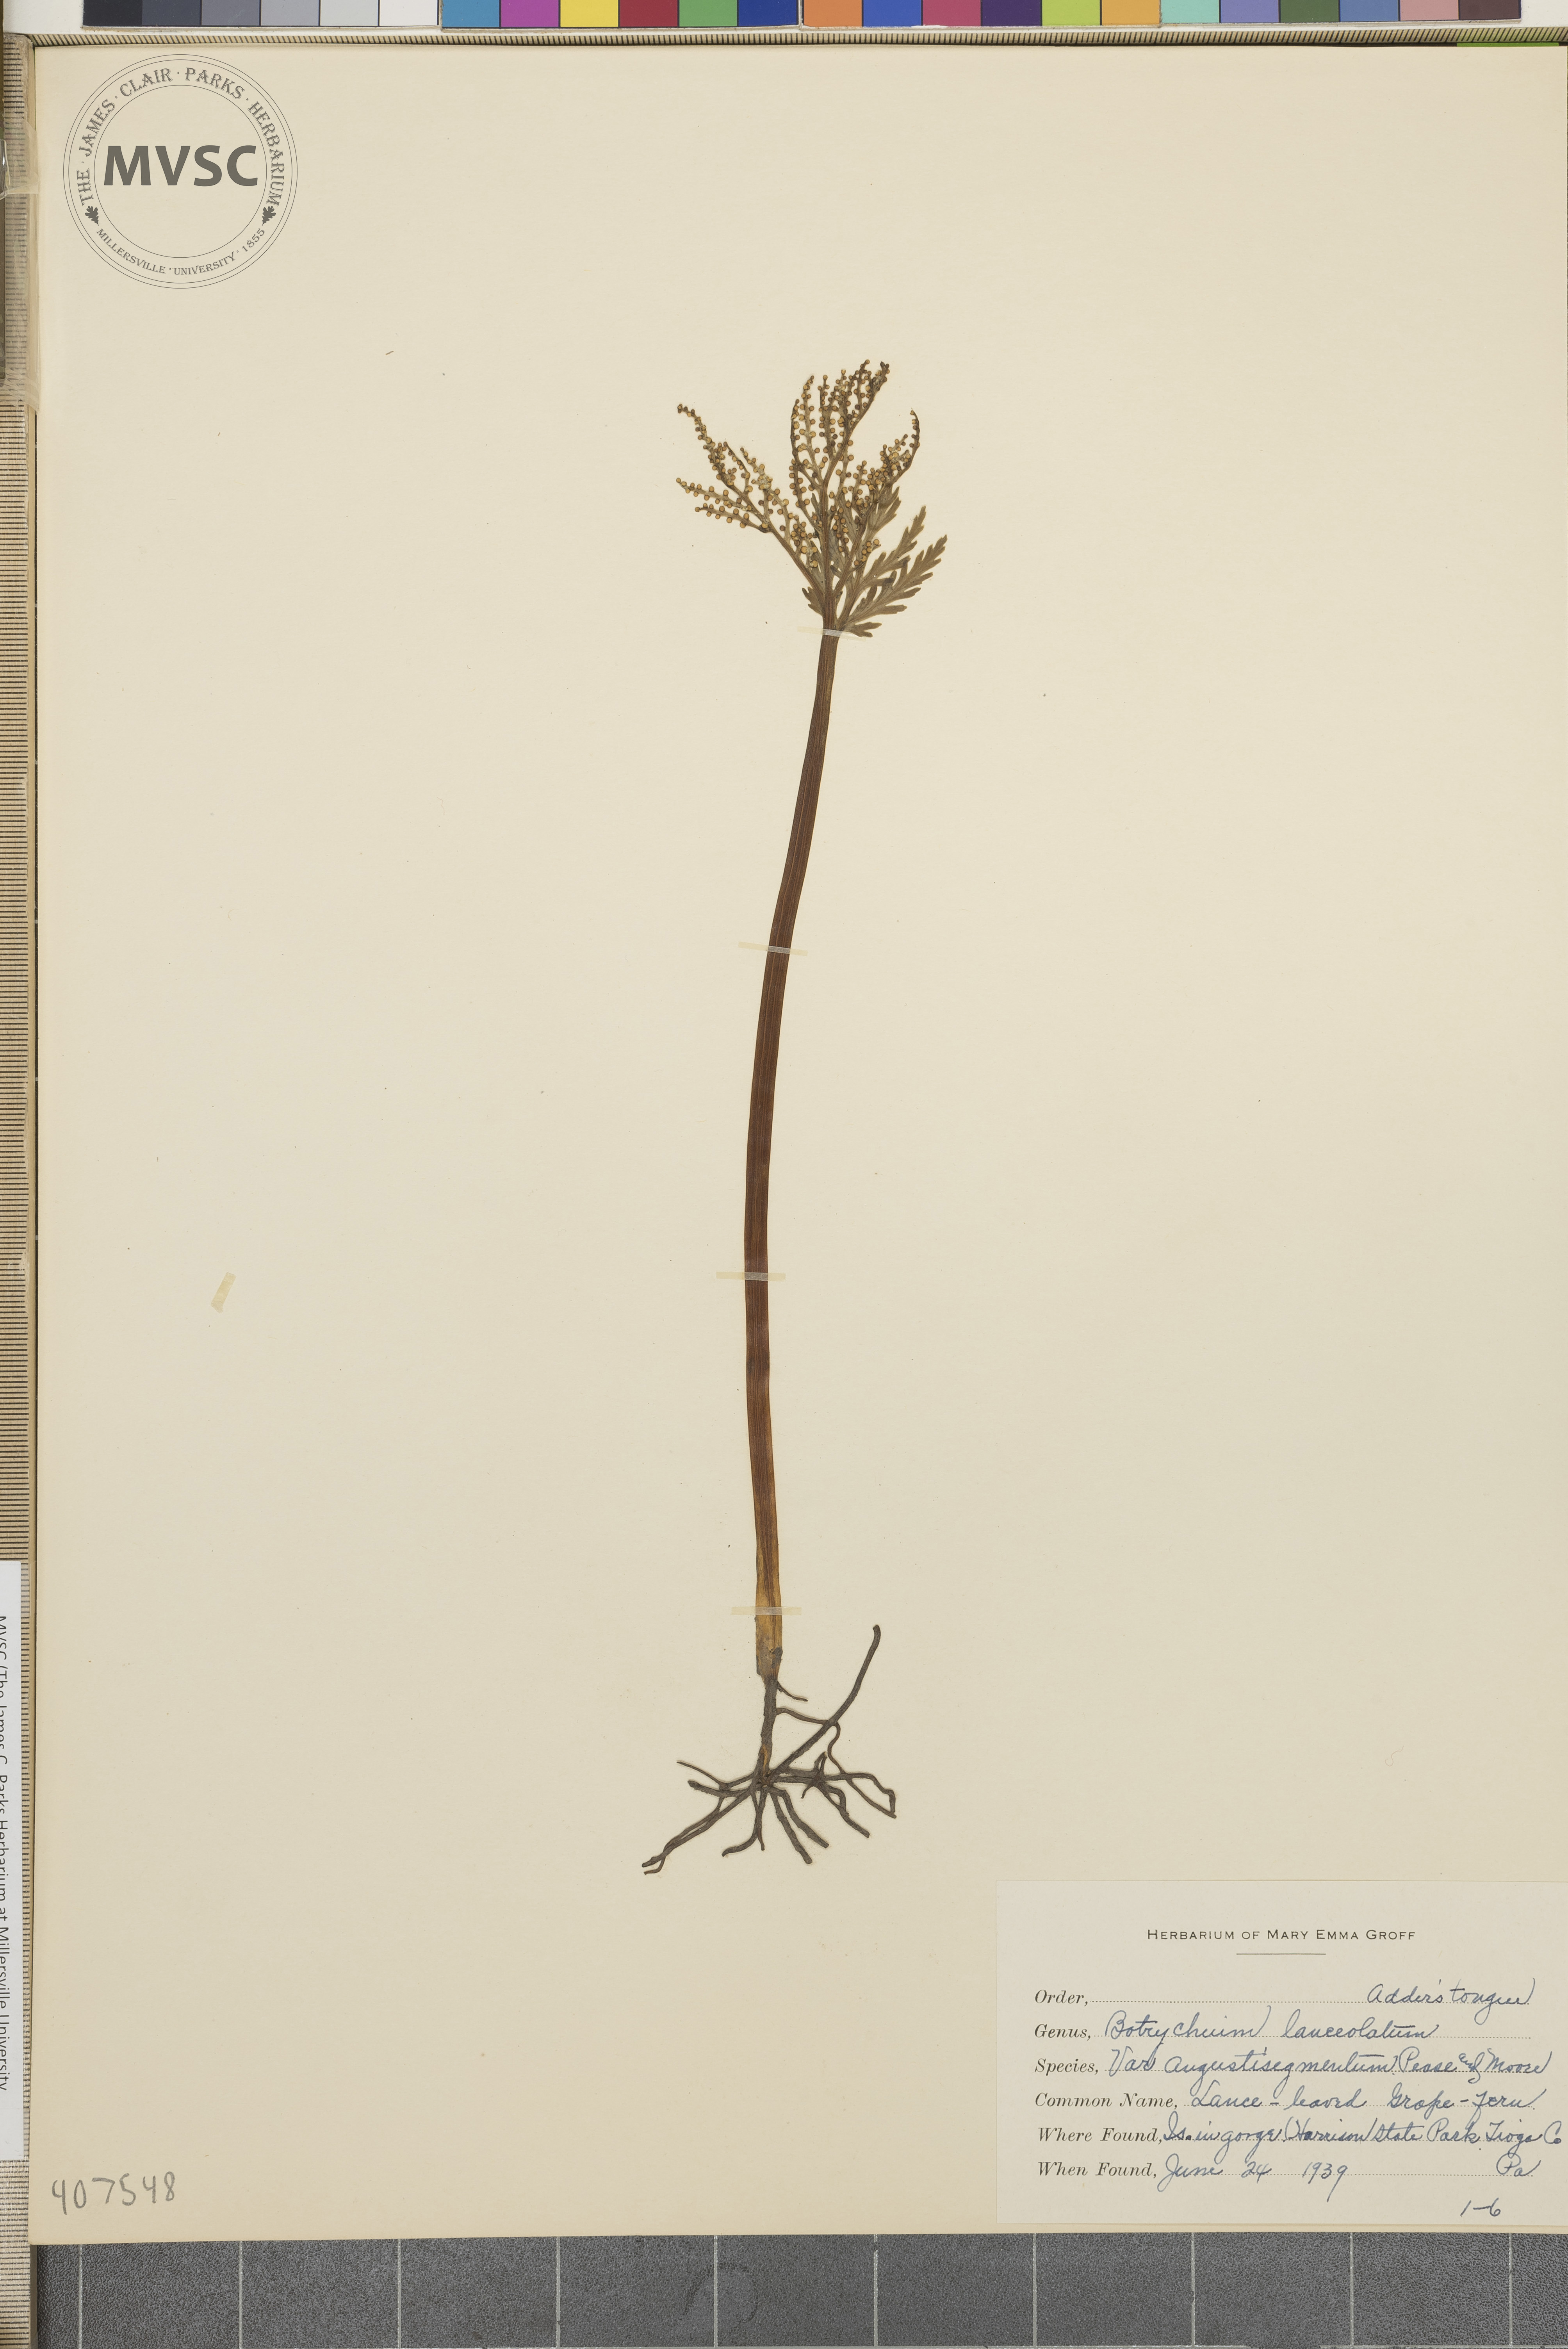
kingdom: Plantae
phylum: Tracheophyta
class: Polypodiopsida
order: Ophioglossales
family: Ophioglossaceae
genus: Botrychium
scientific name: Botrychium lanceolatum
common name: Lance-leaved moonwort
